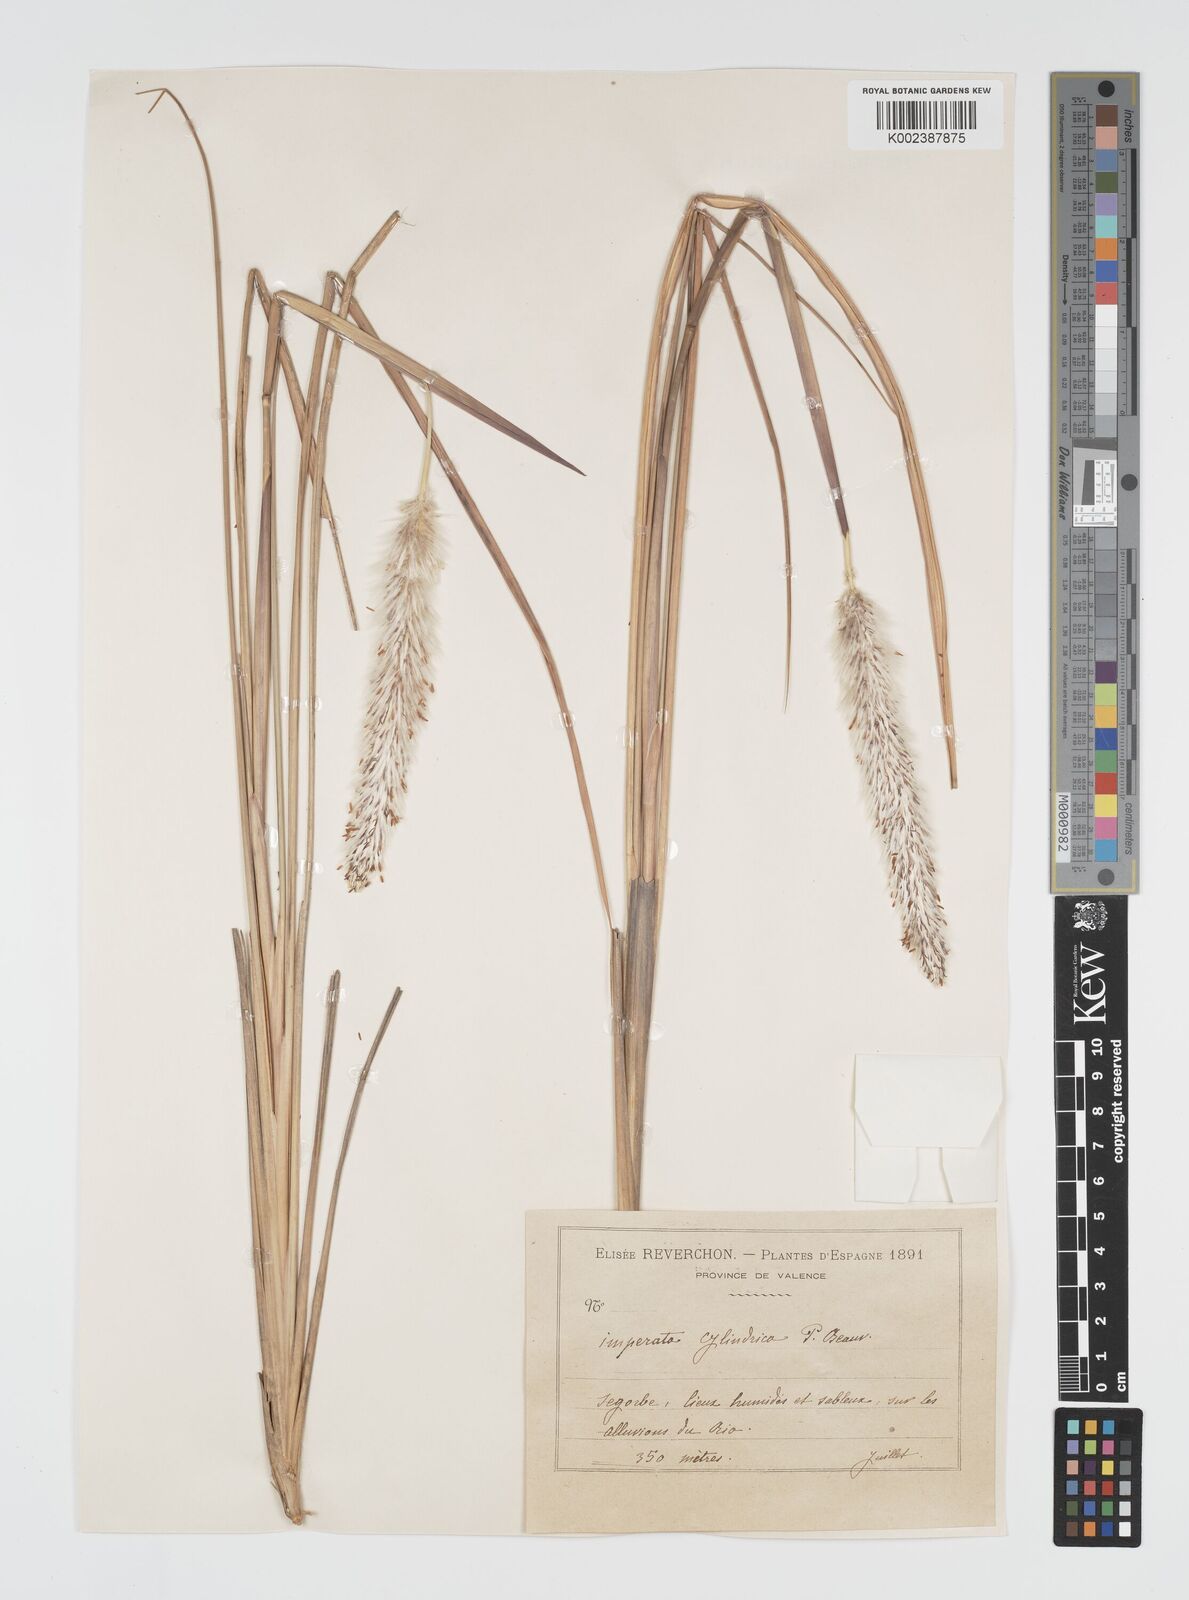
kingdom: Plantae
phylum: Tracheophyta
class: Liliopsida
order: Poales
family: Poaceae
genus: Imperata
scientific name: Imperata cylindrica
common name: Cogongrass
